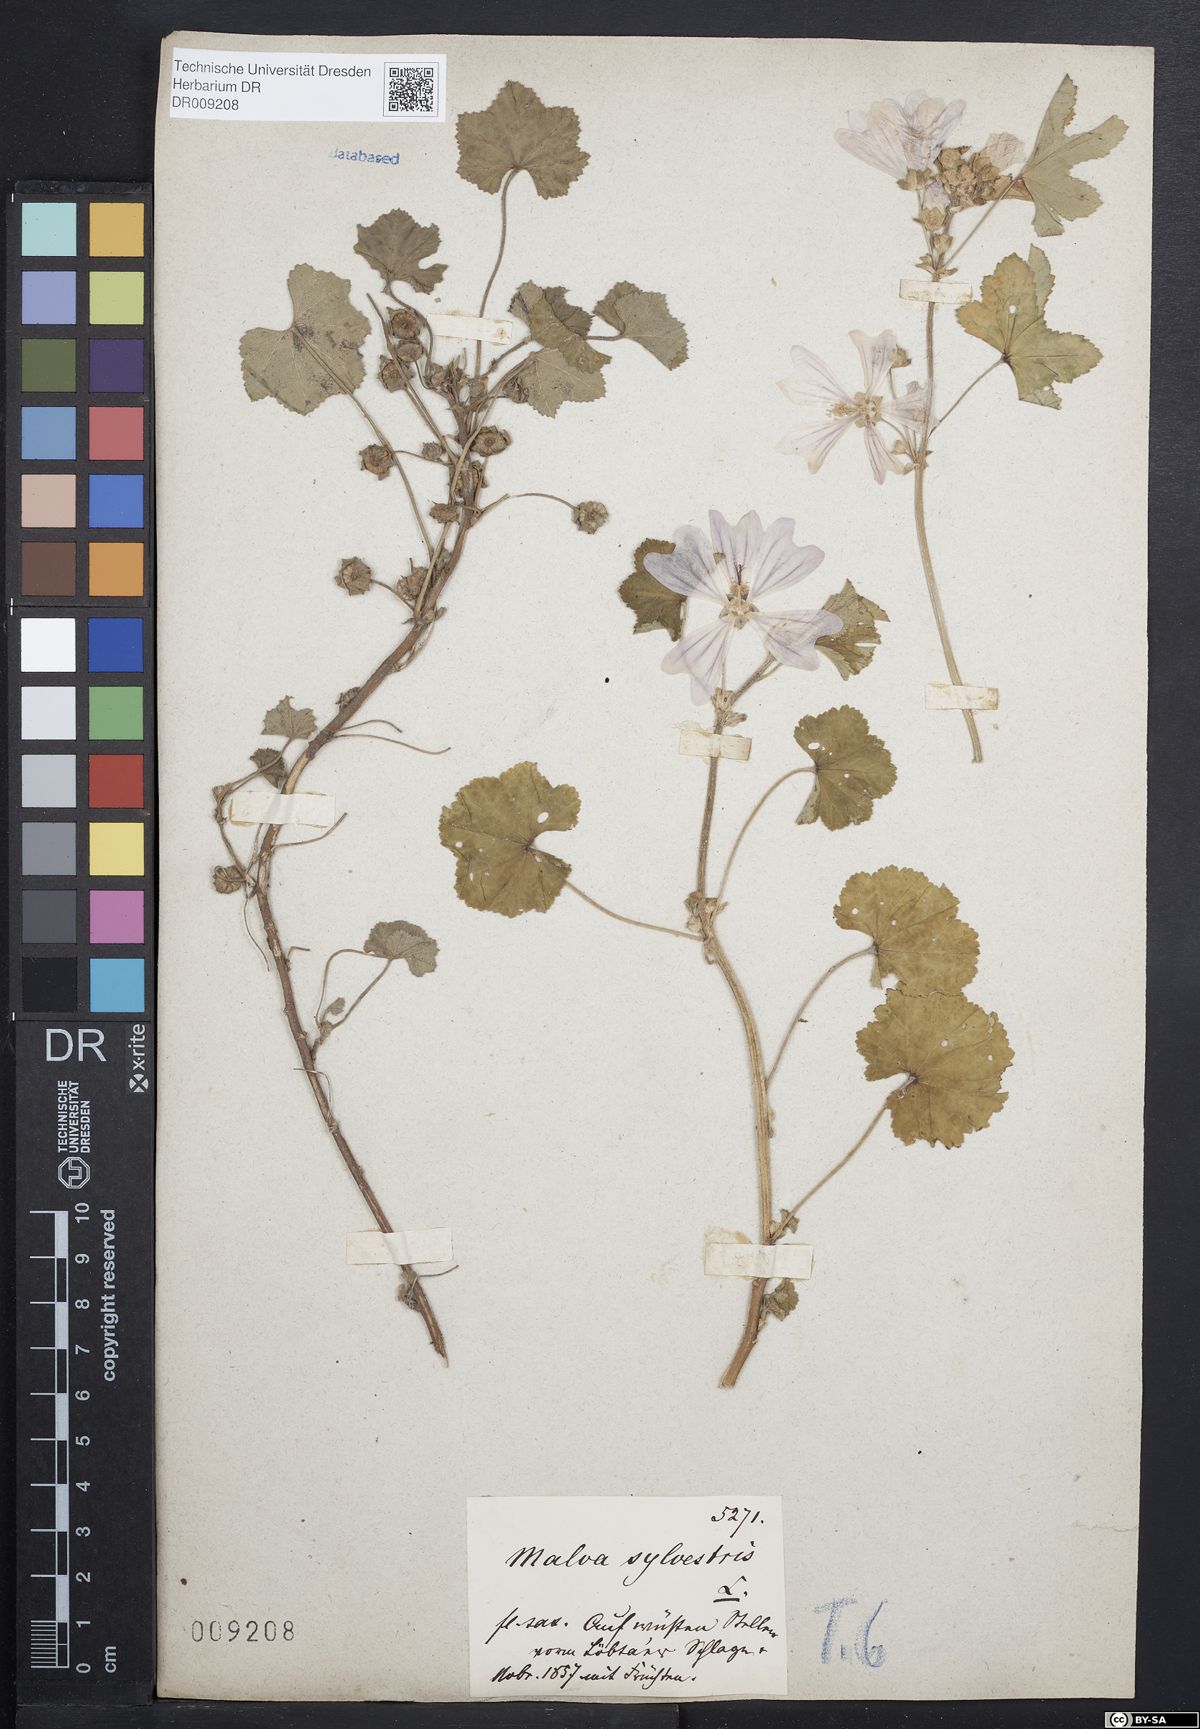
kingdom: Plantae
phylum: Tracheophyta
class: Magnoliopsida
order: Malvales
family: Malvaceae
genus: Malva
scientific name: Malva sylvestris
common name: Common mallow
